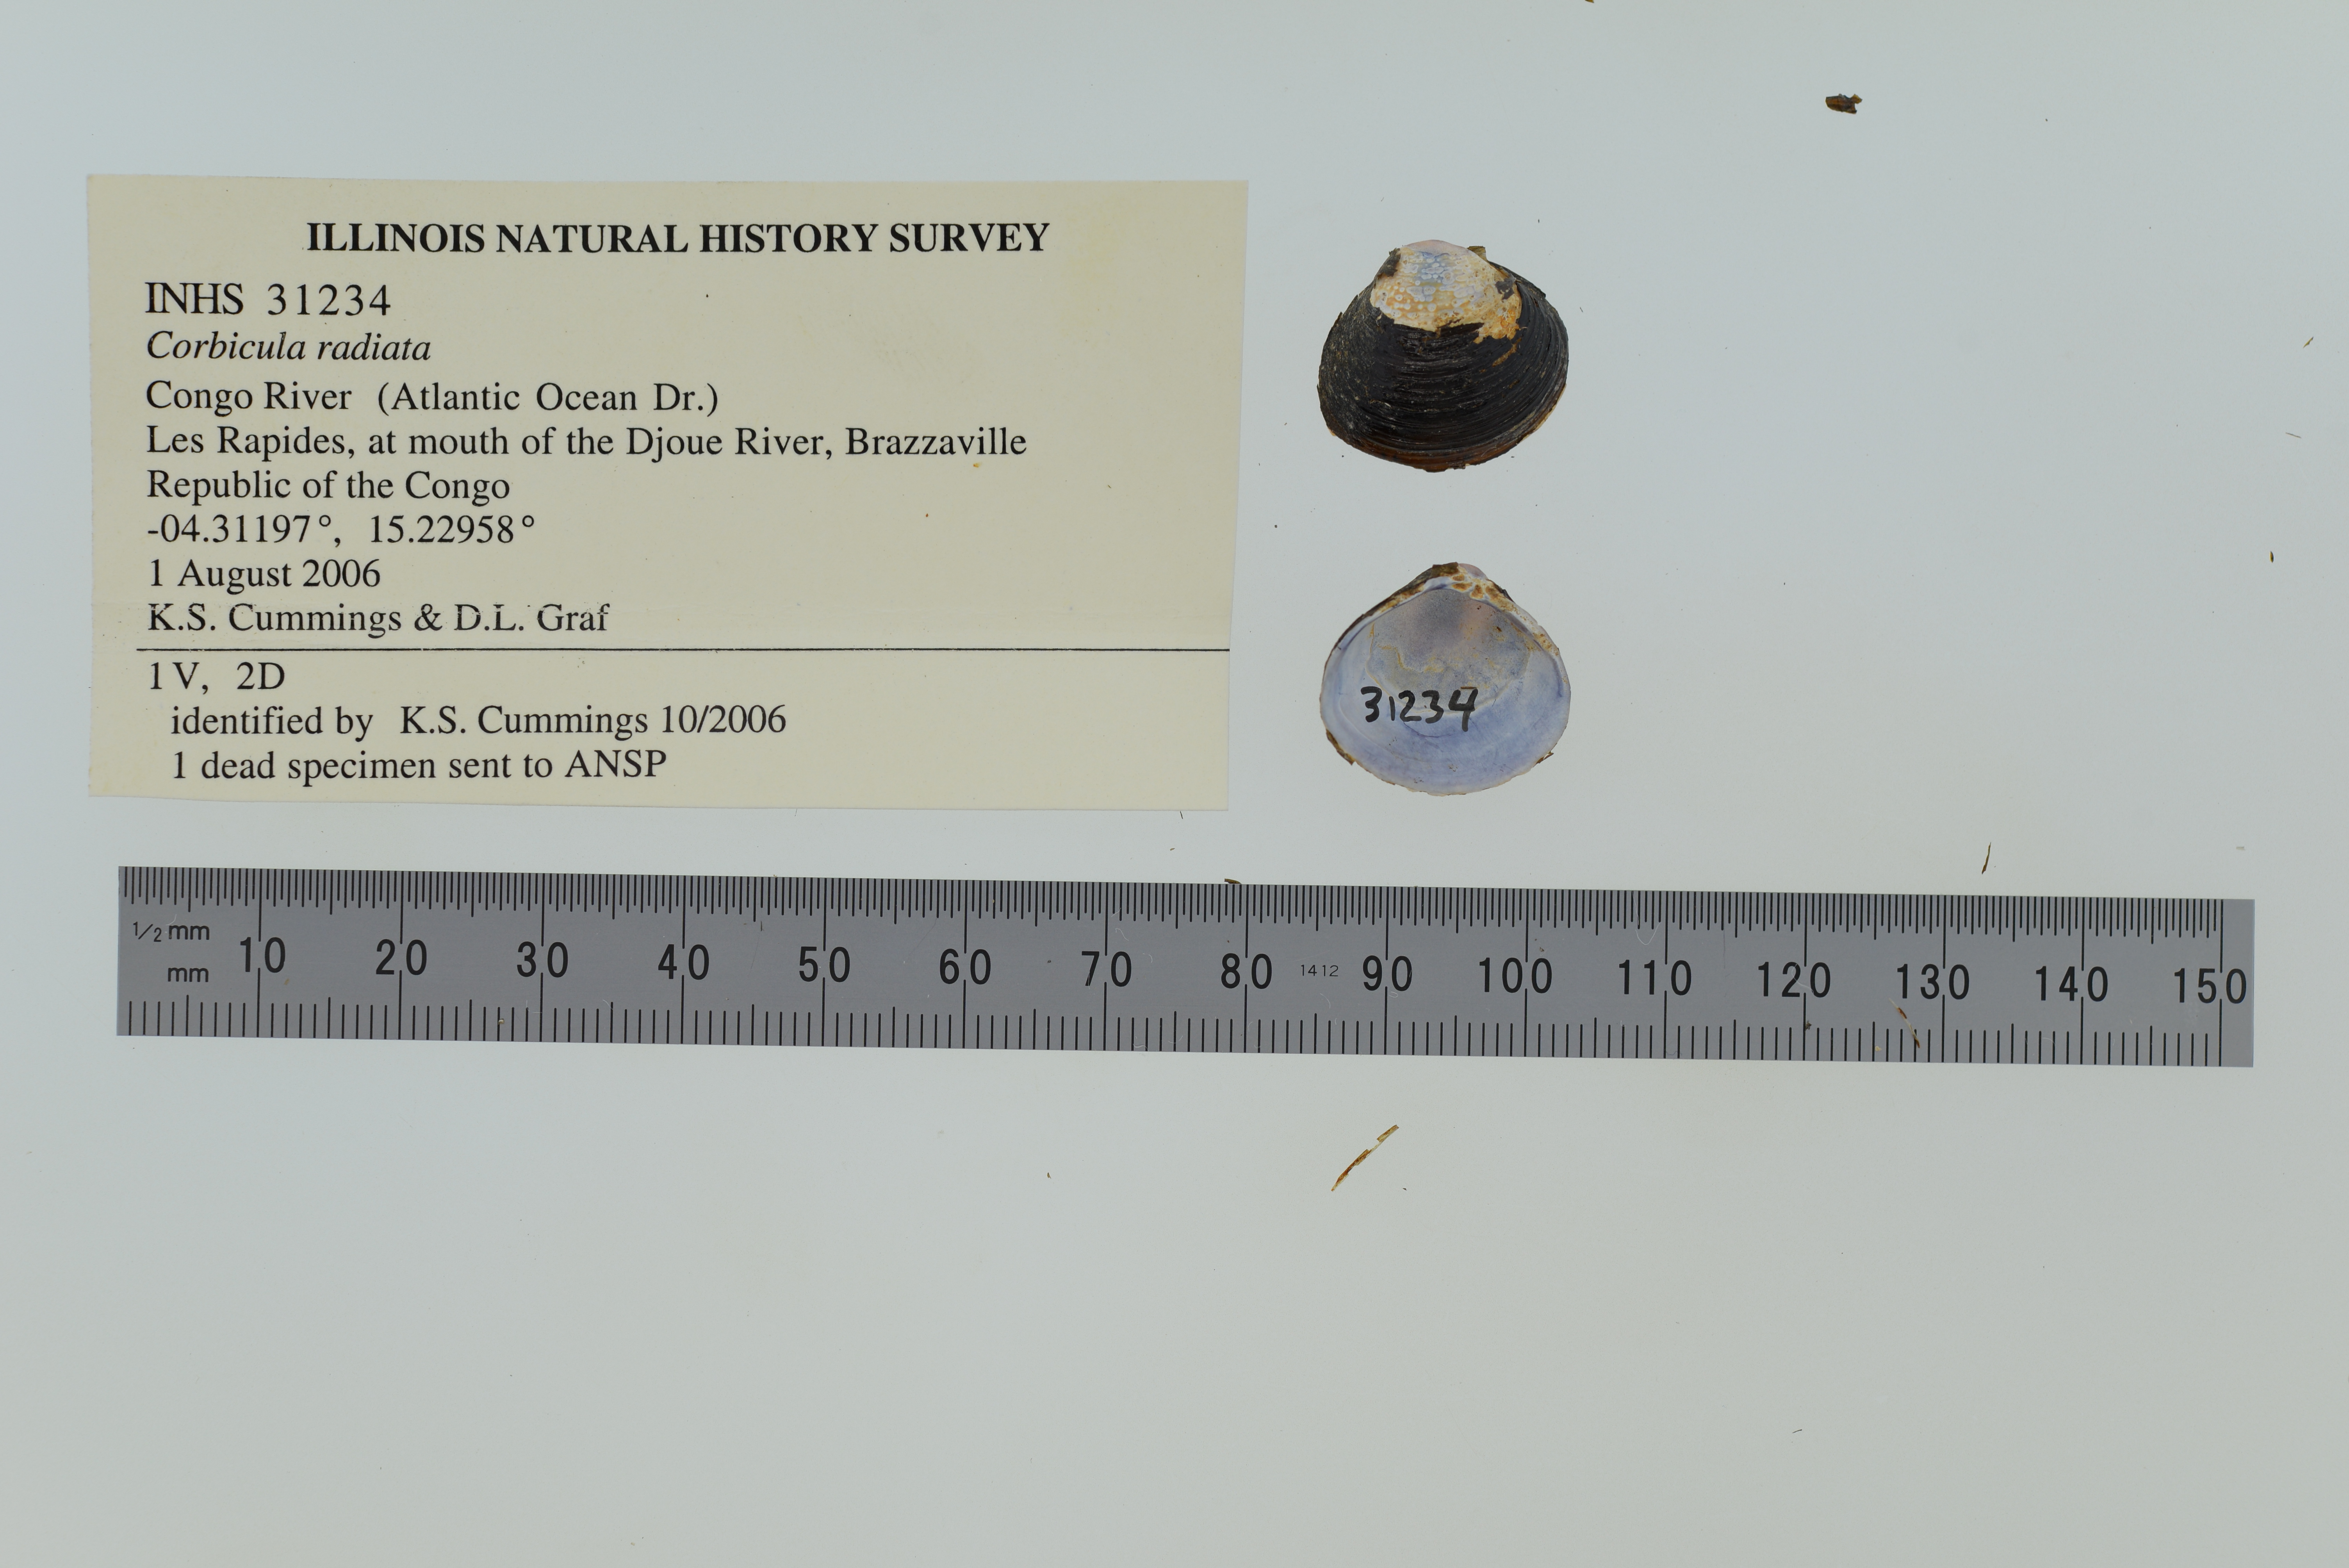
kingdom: Animalia
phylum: Mollusca
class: Bivalvia
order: Venerida
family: Cyrenidae
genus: Corbicula
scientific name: Corbicula africana
